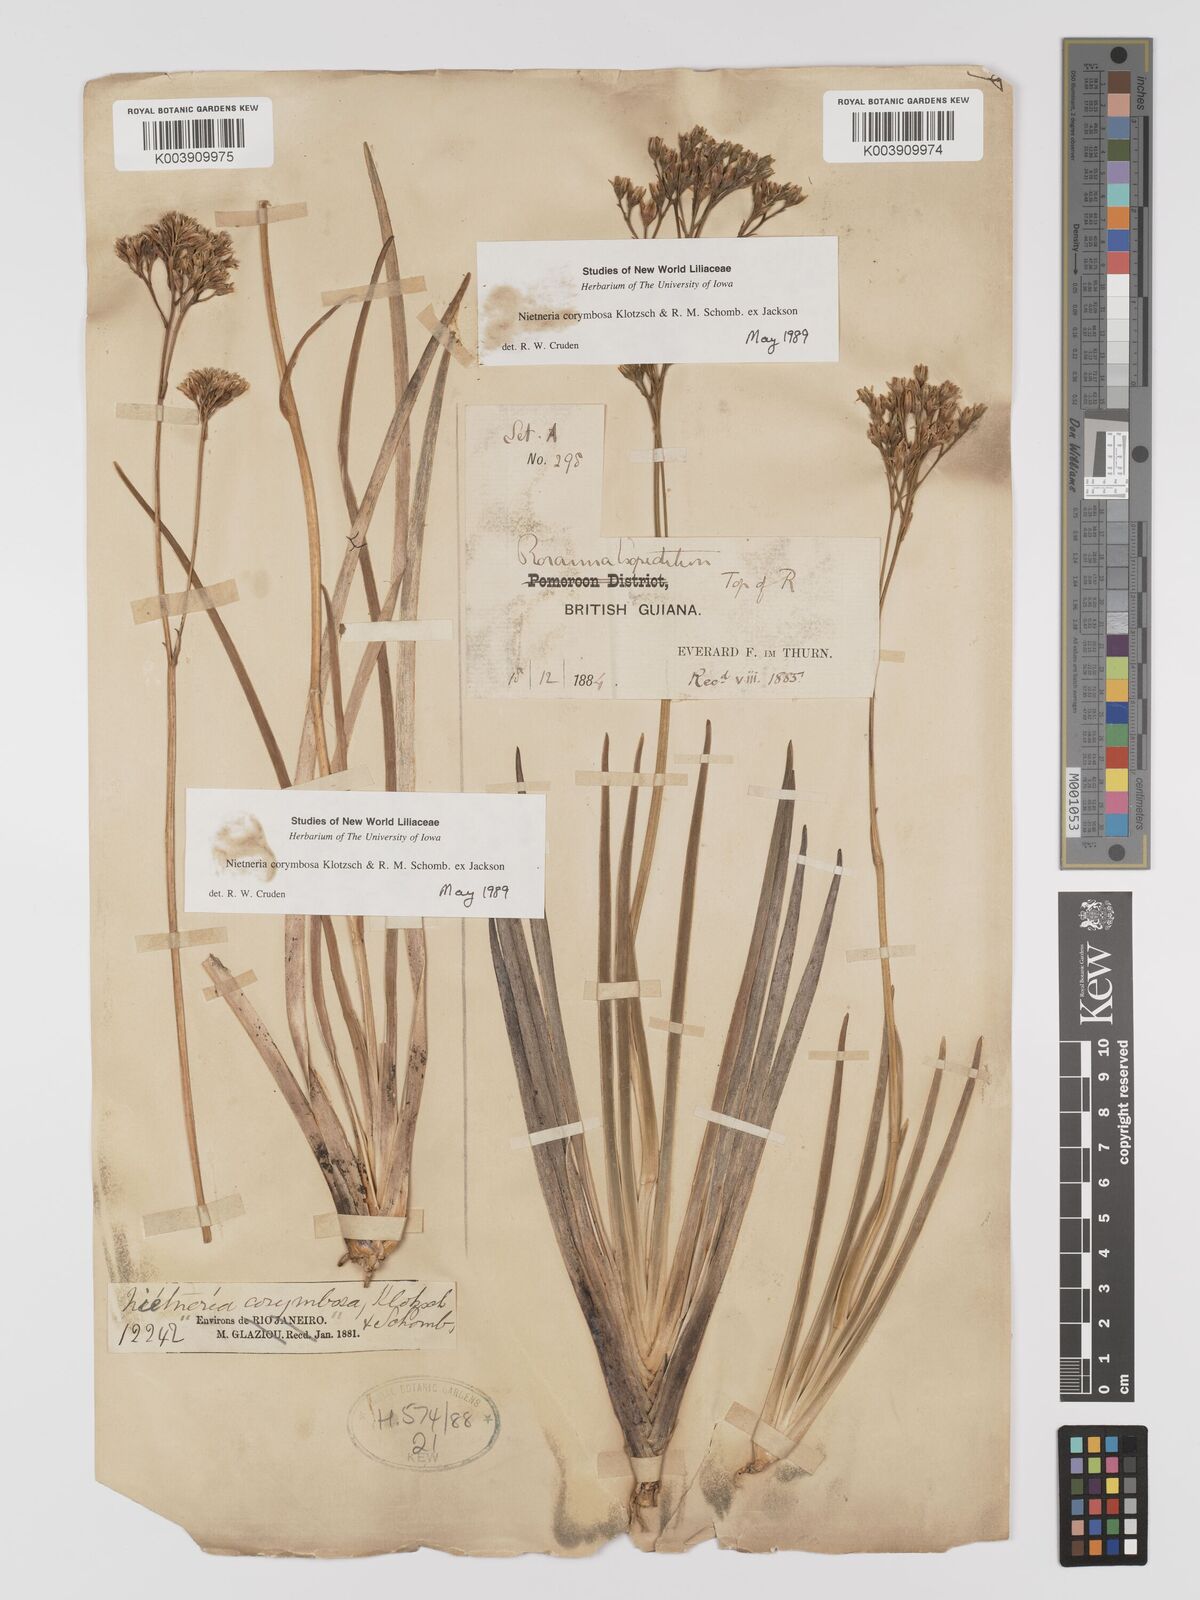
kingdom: Plantae
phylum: Tracheophyta
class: Liliopsida
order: Dioscoreales
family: Nartheciaceae
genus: Nietneria
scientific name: Nietneria corymbosa
